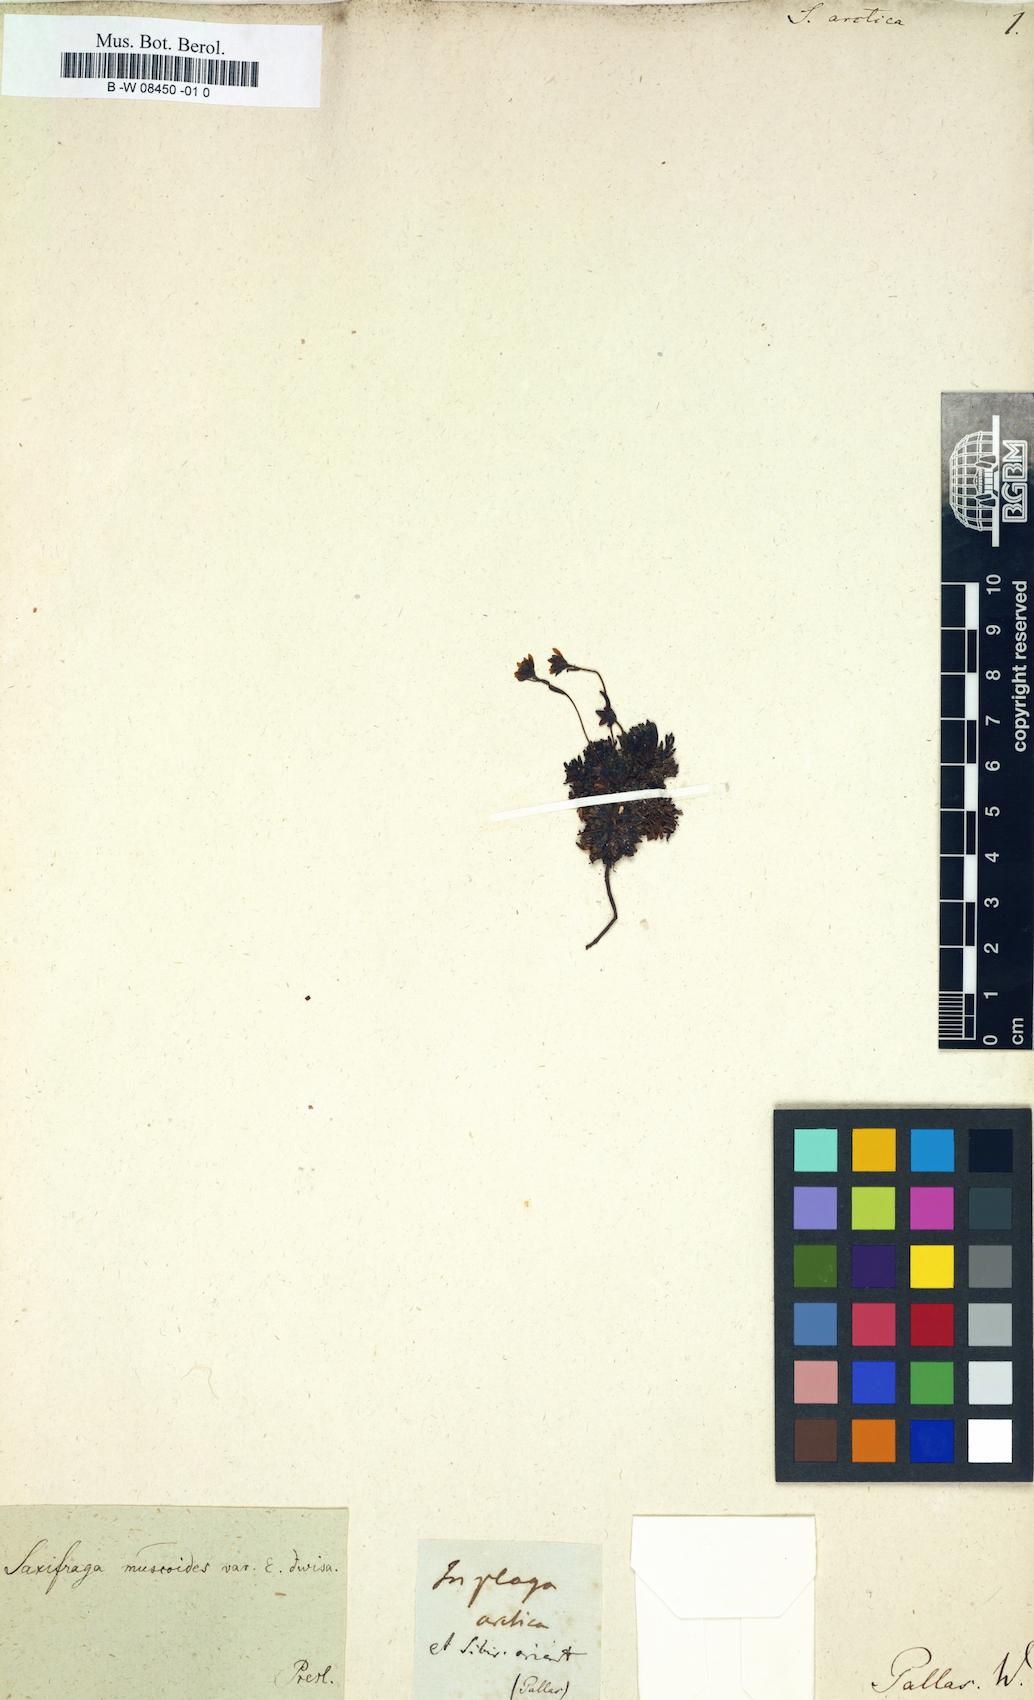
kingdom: Plantae
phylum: Tracheophyta
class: Magnoliopsida
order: Saxifragales
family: Saxifragaceae
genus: Saxifraga
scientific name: Saxifraga muscoides
